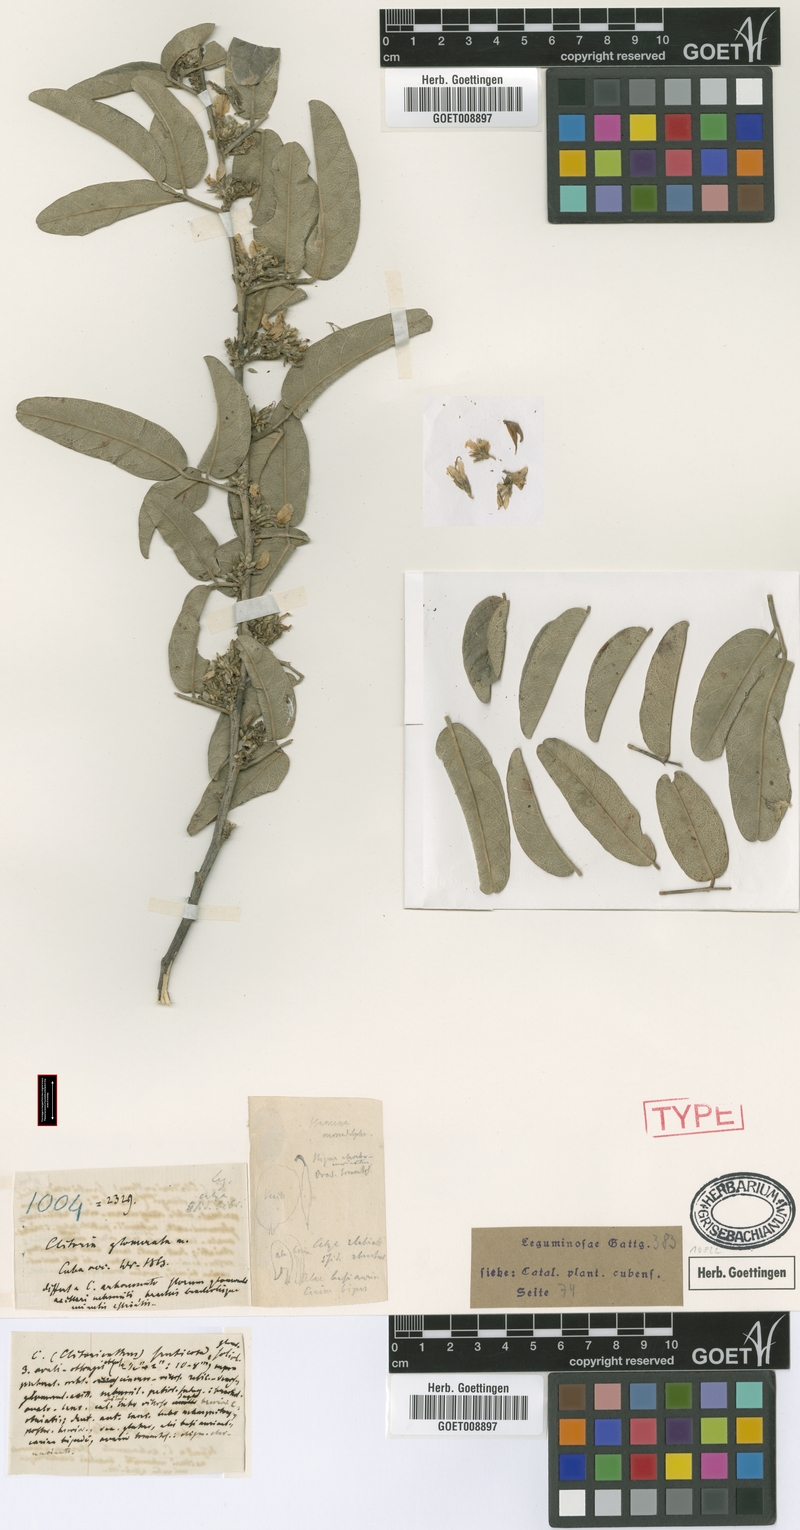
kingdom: Plantae
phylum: Tracheophyta
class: Magnoliopsida
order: Fabales
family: Fabaceae
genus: Galactia
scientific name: Galactia jussiaeana
